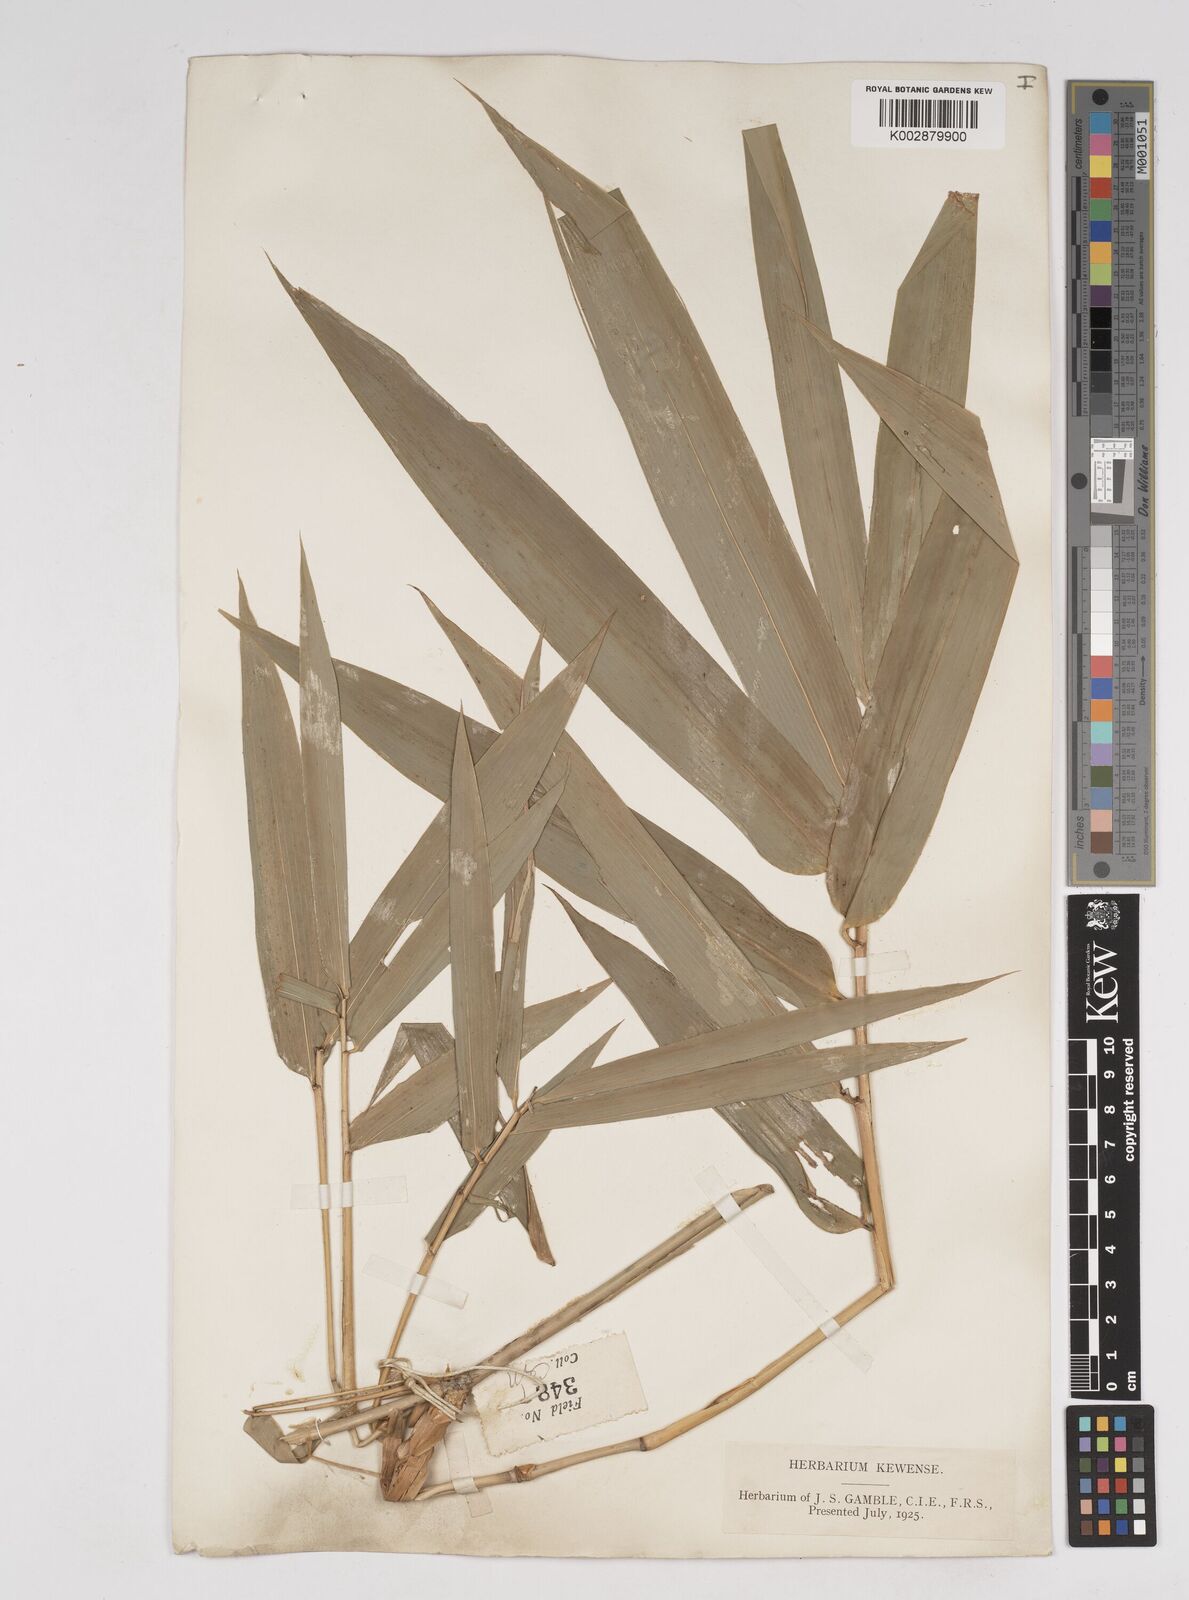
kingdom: Plantae
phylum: Tracheophyta
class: Liliopsida
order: Poales
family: Poaceae
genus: Gigantochloa
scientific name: Gigantochloa nigrociliata
